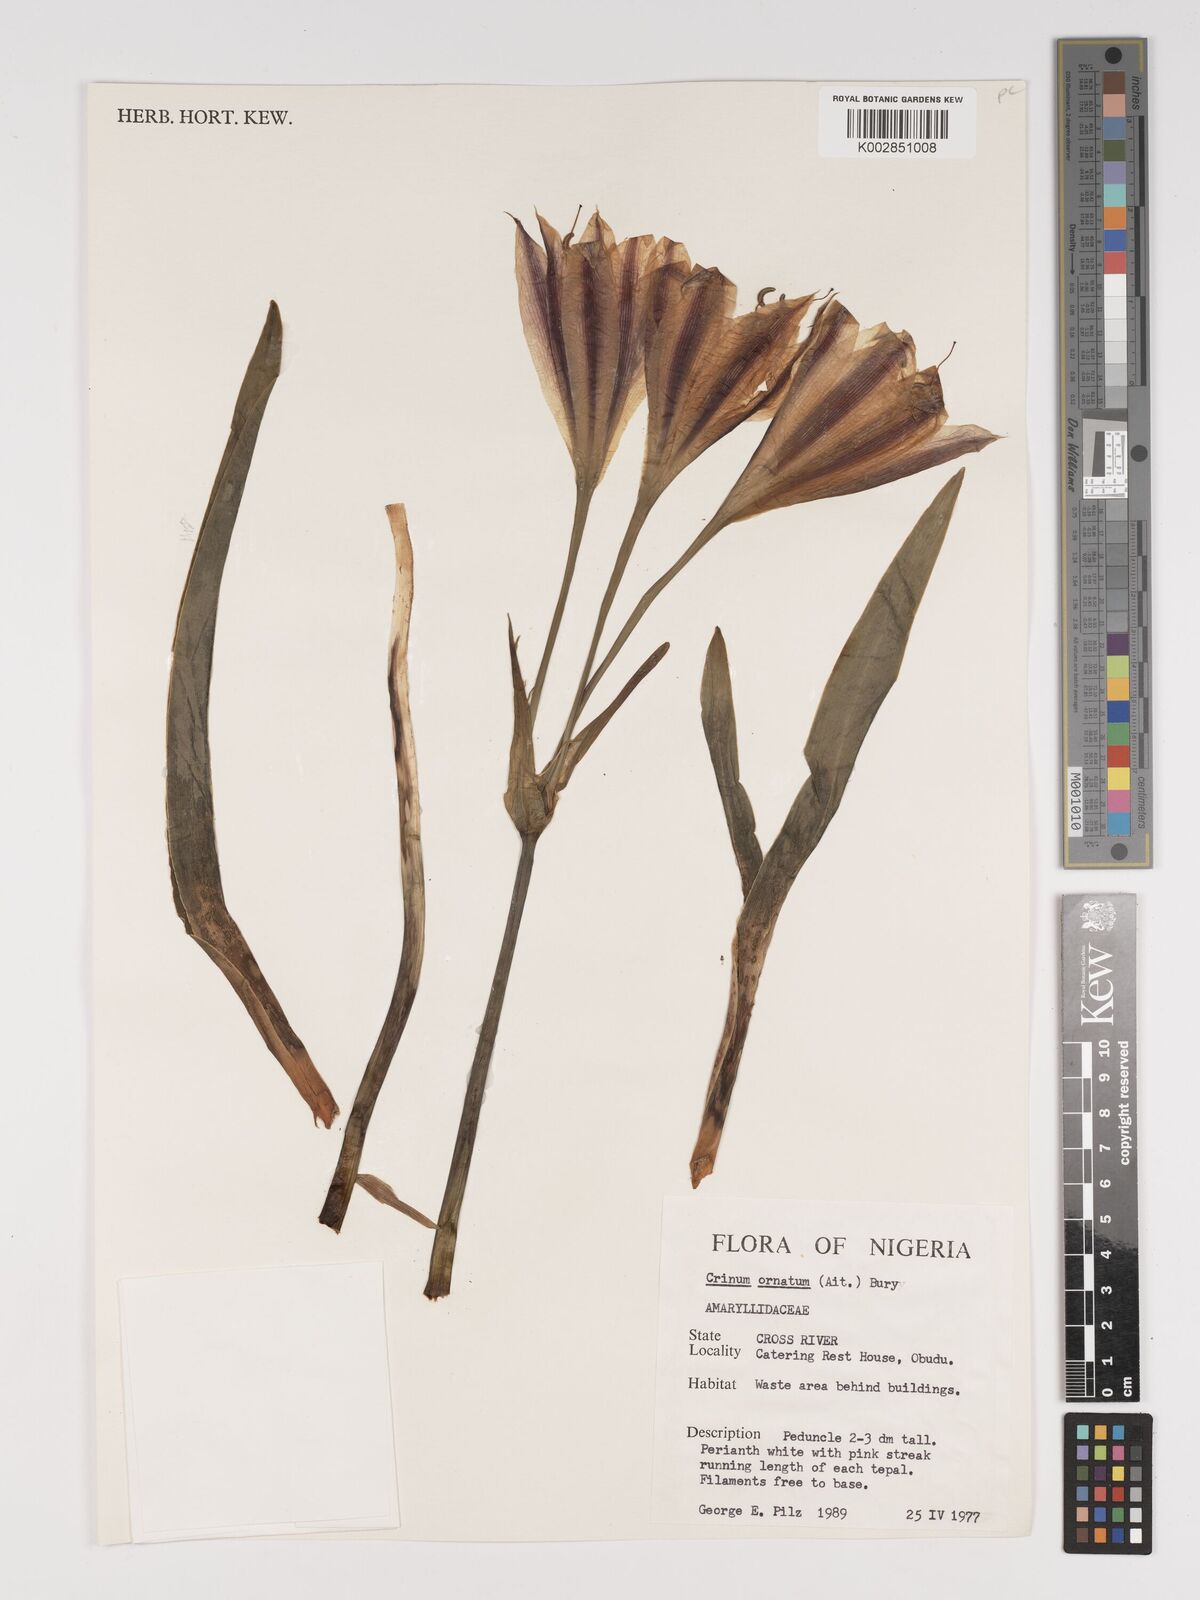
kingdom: Plantae
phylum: Tracheophyta
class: Liliopsida
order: Asparagales
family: Amaryllidaceae
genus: Crinum
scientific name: Crinum zeylanicum
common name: Ceylon swamplily
